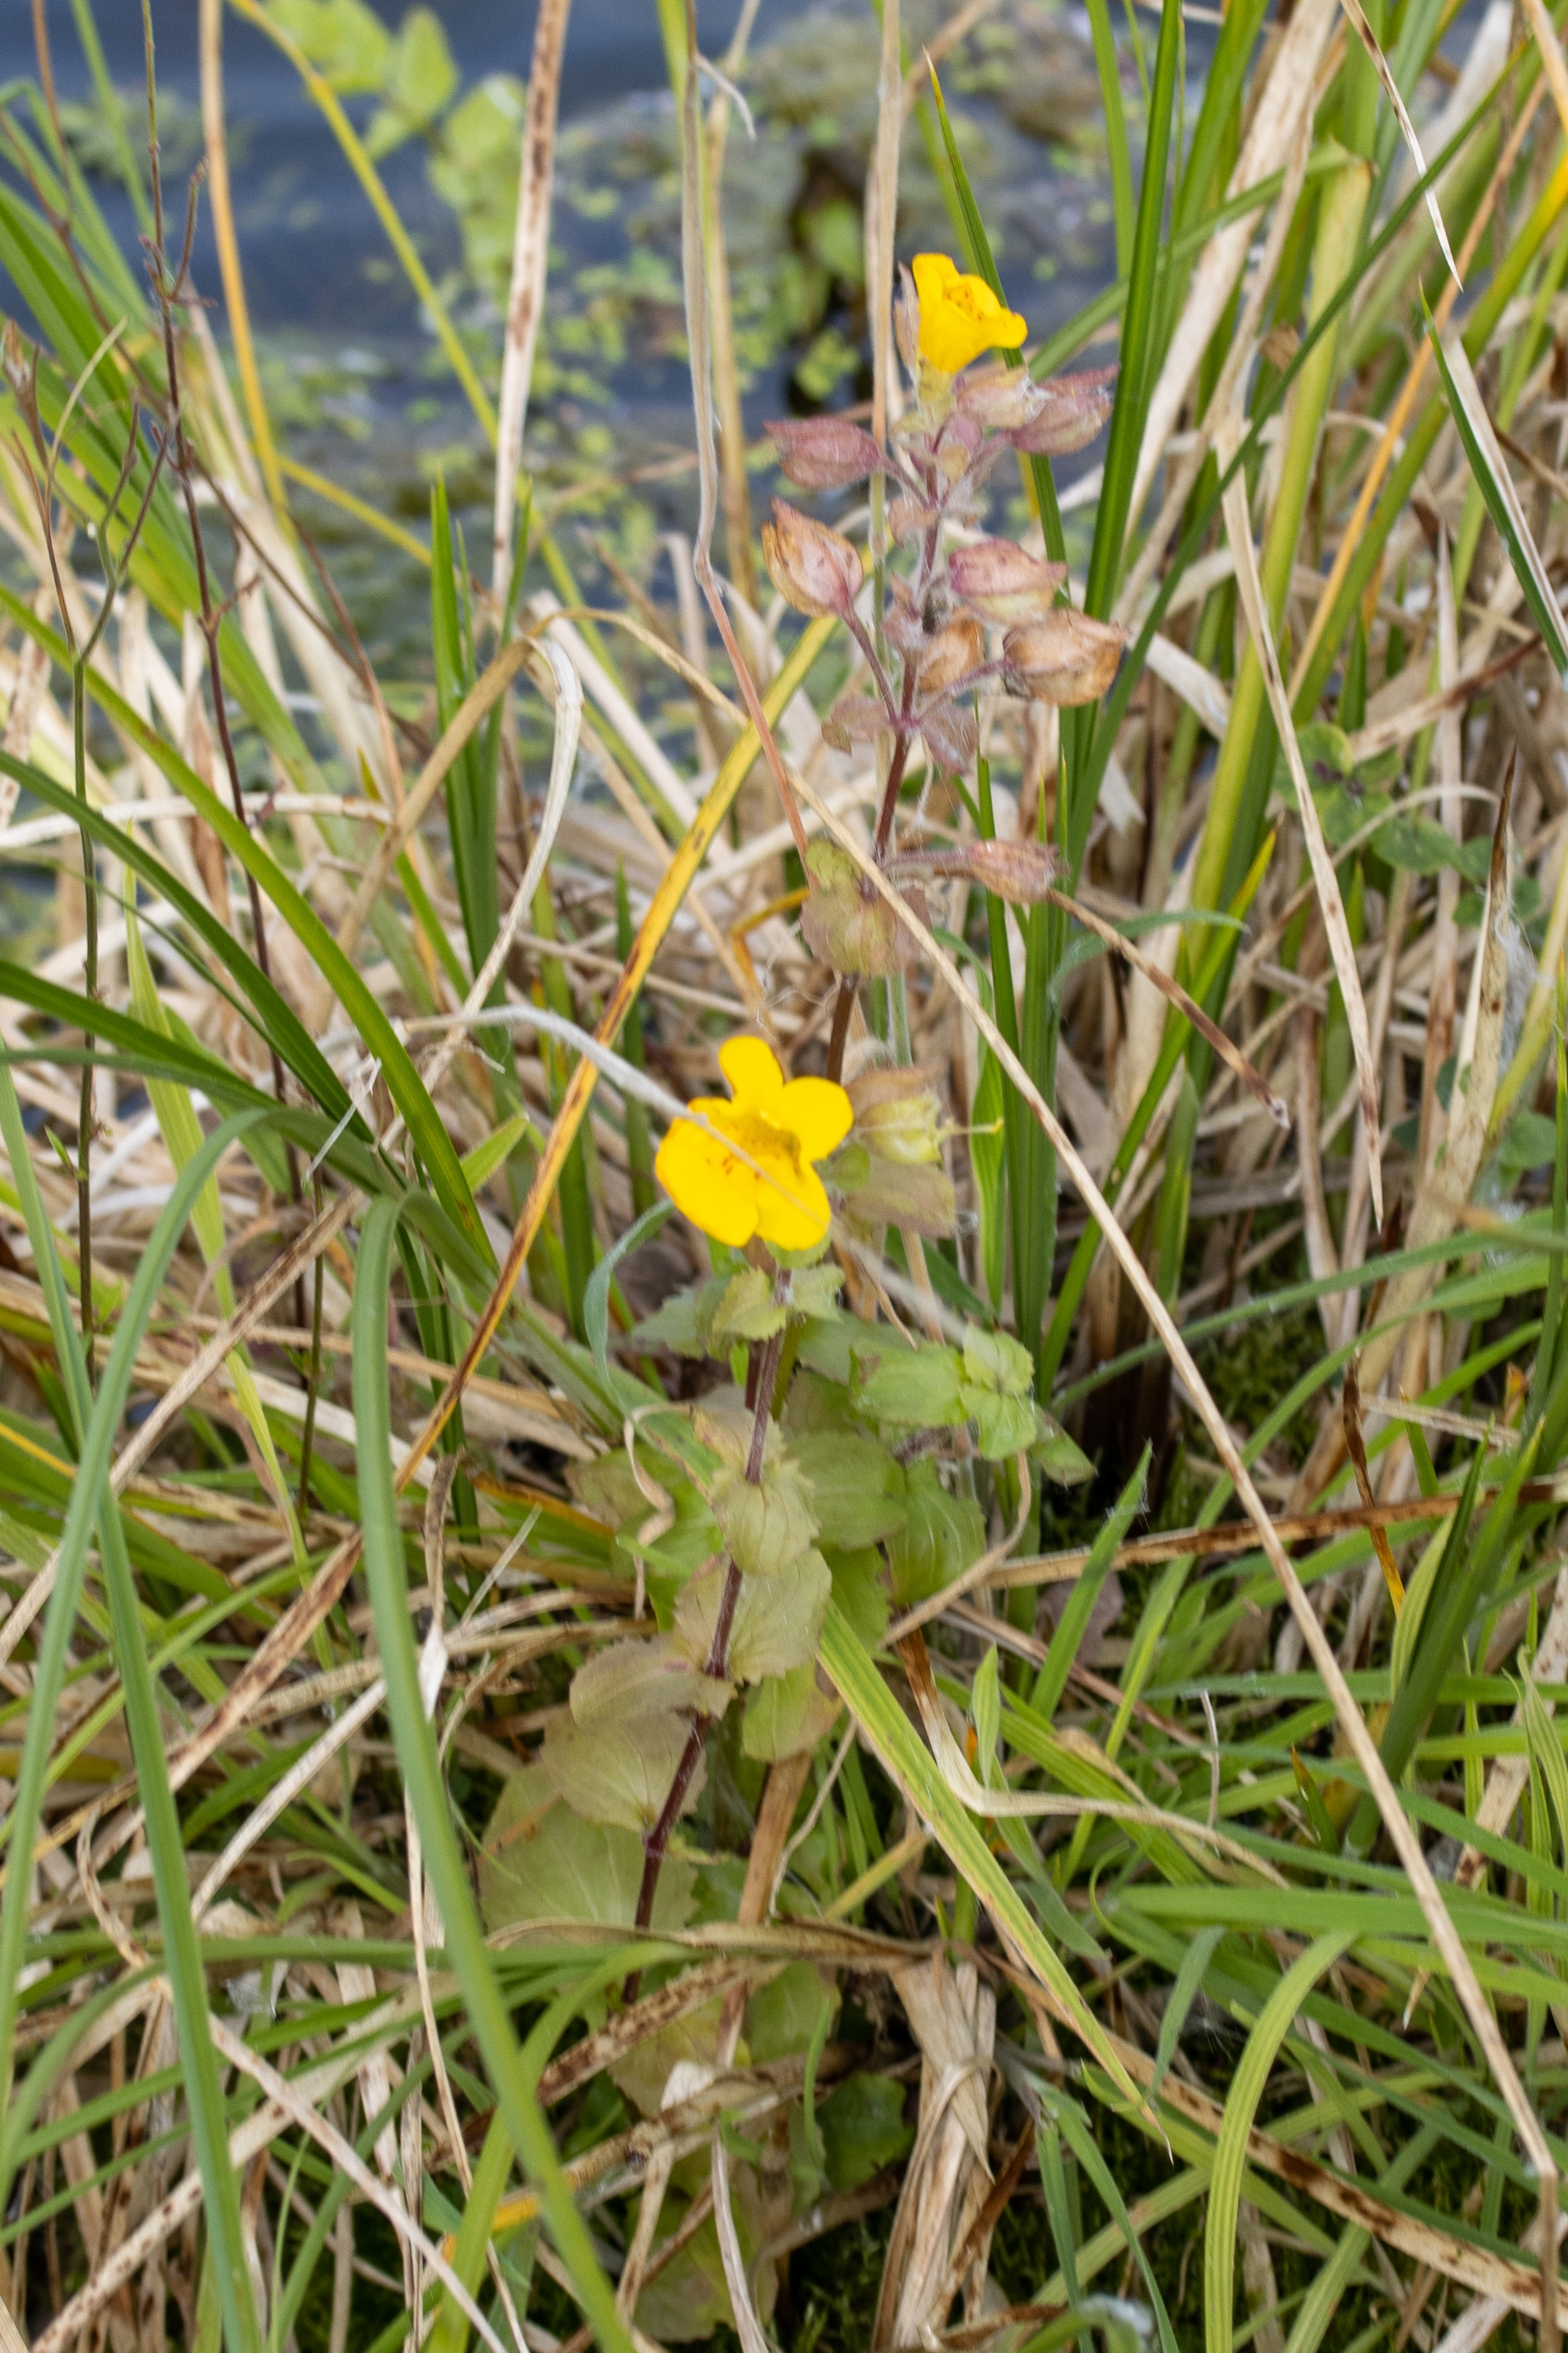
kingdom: Plantae
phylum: Tracheophyta
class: Magnoliopsida
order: Lamiales
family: Phrymaceae
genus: Erythranthe
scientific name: Erythranthe guttata
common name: Abeblomst
